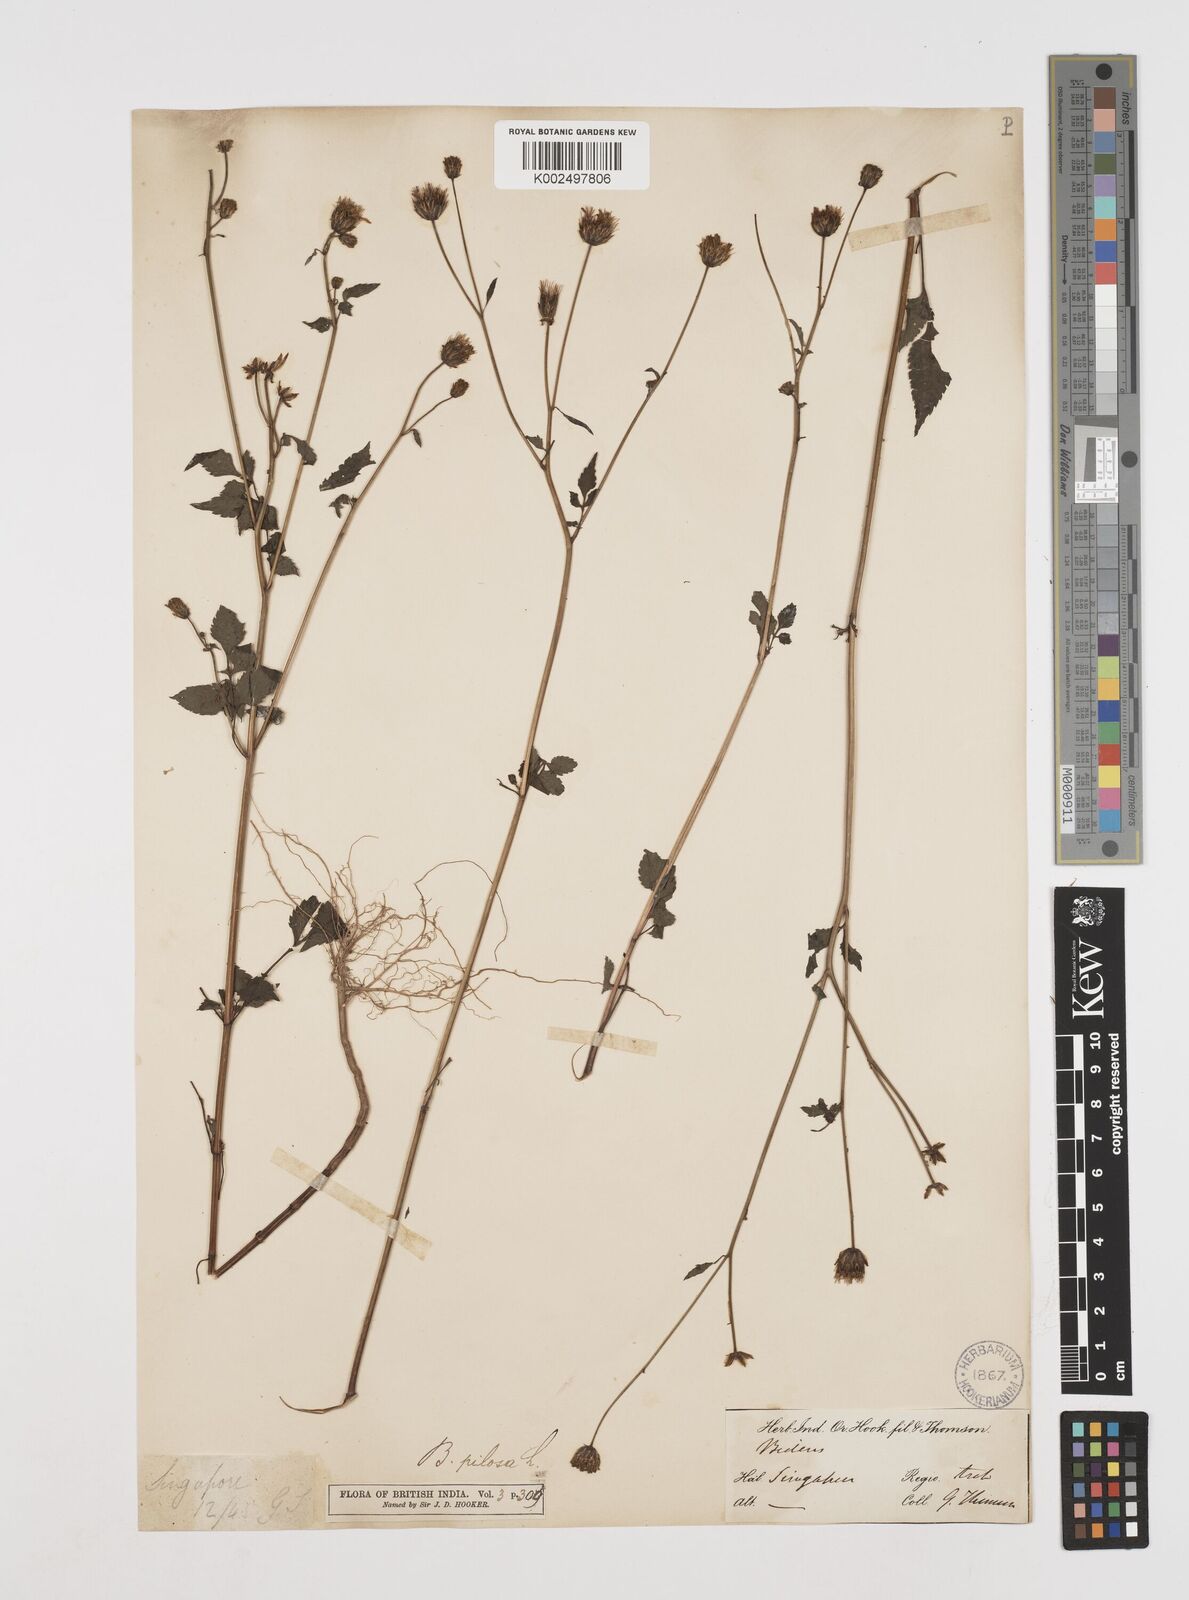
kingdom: Plantae
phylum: Tracheophyta
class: Magnoliopsida
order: Asterales
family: Asteraceae
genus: Bidens
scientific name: Bidens pilosa
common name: Black-jack
